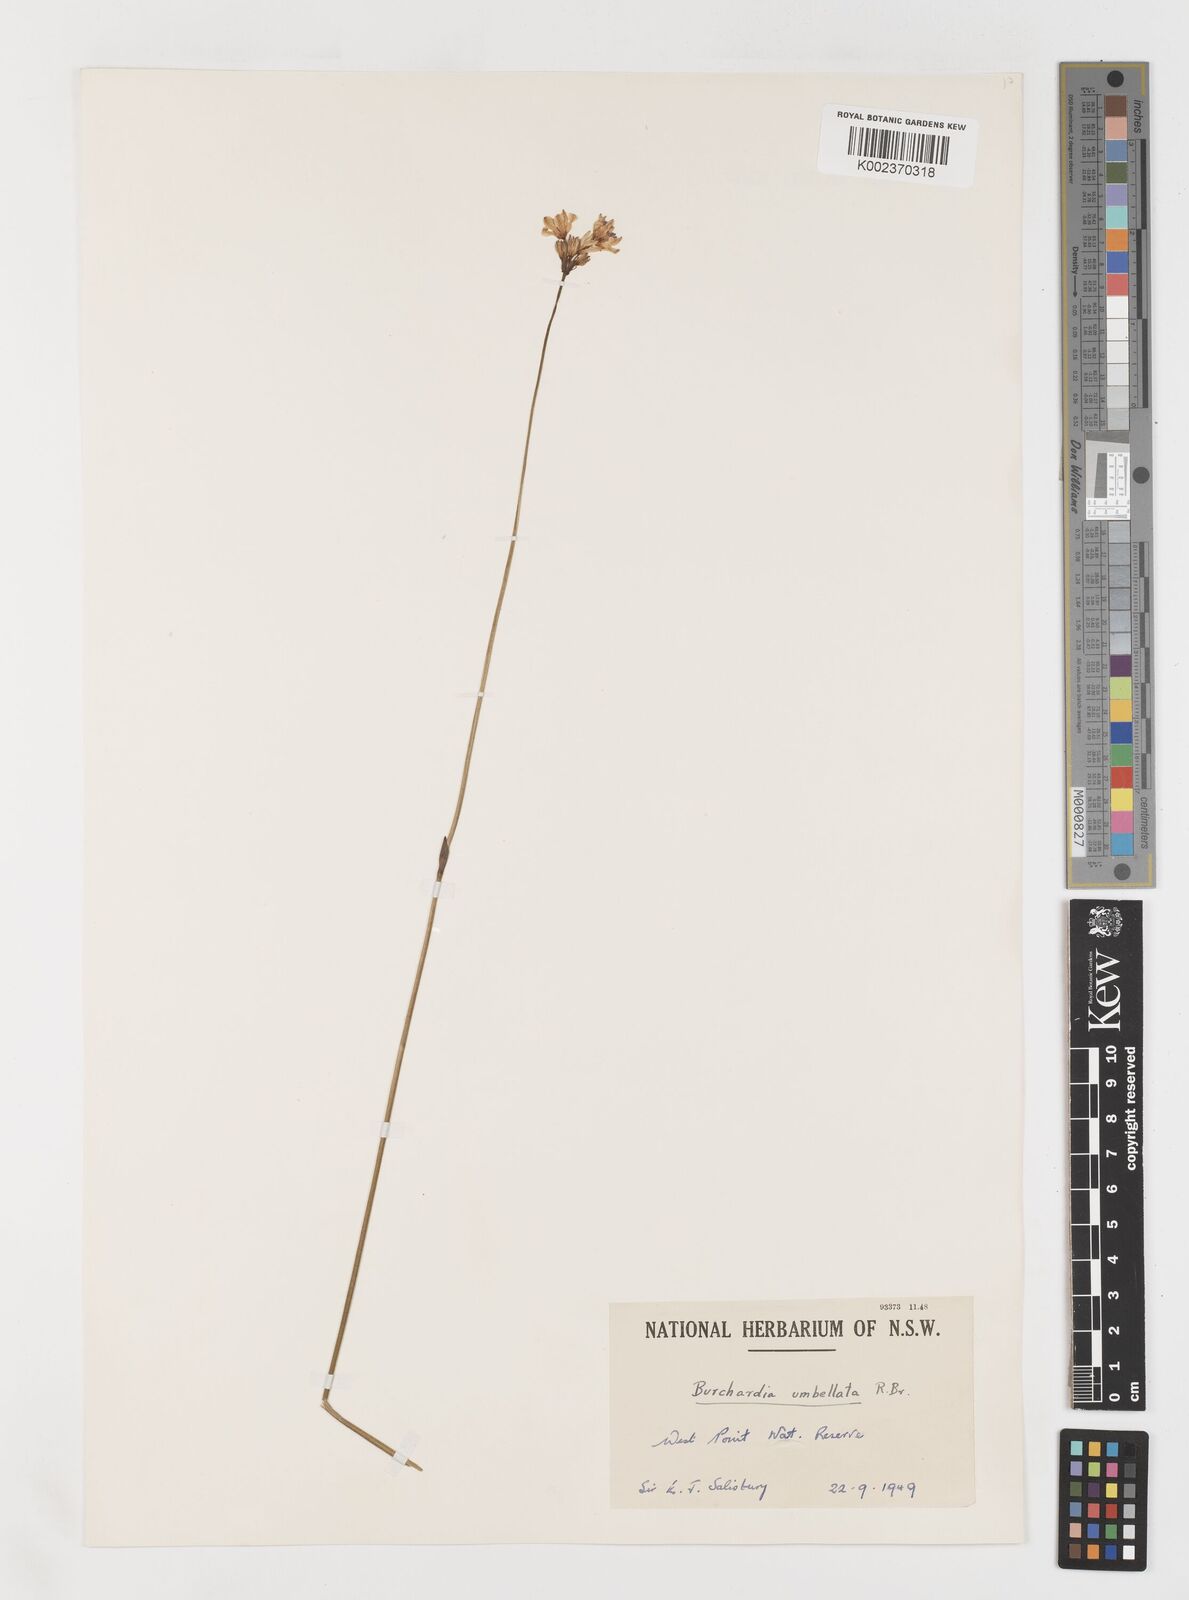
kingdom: Plantae
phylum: Tracheophyta
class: Liliopsida
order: Liliales
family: Colchicaceae
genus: Burchardia
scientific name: Burchardia umbellata
